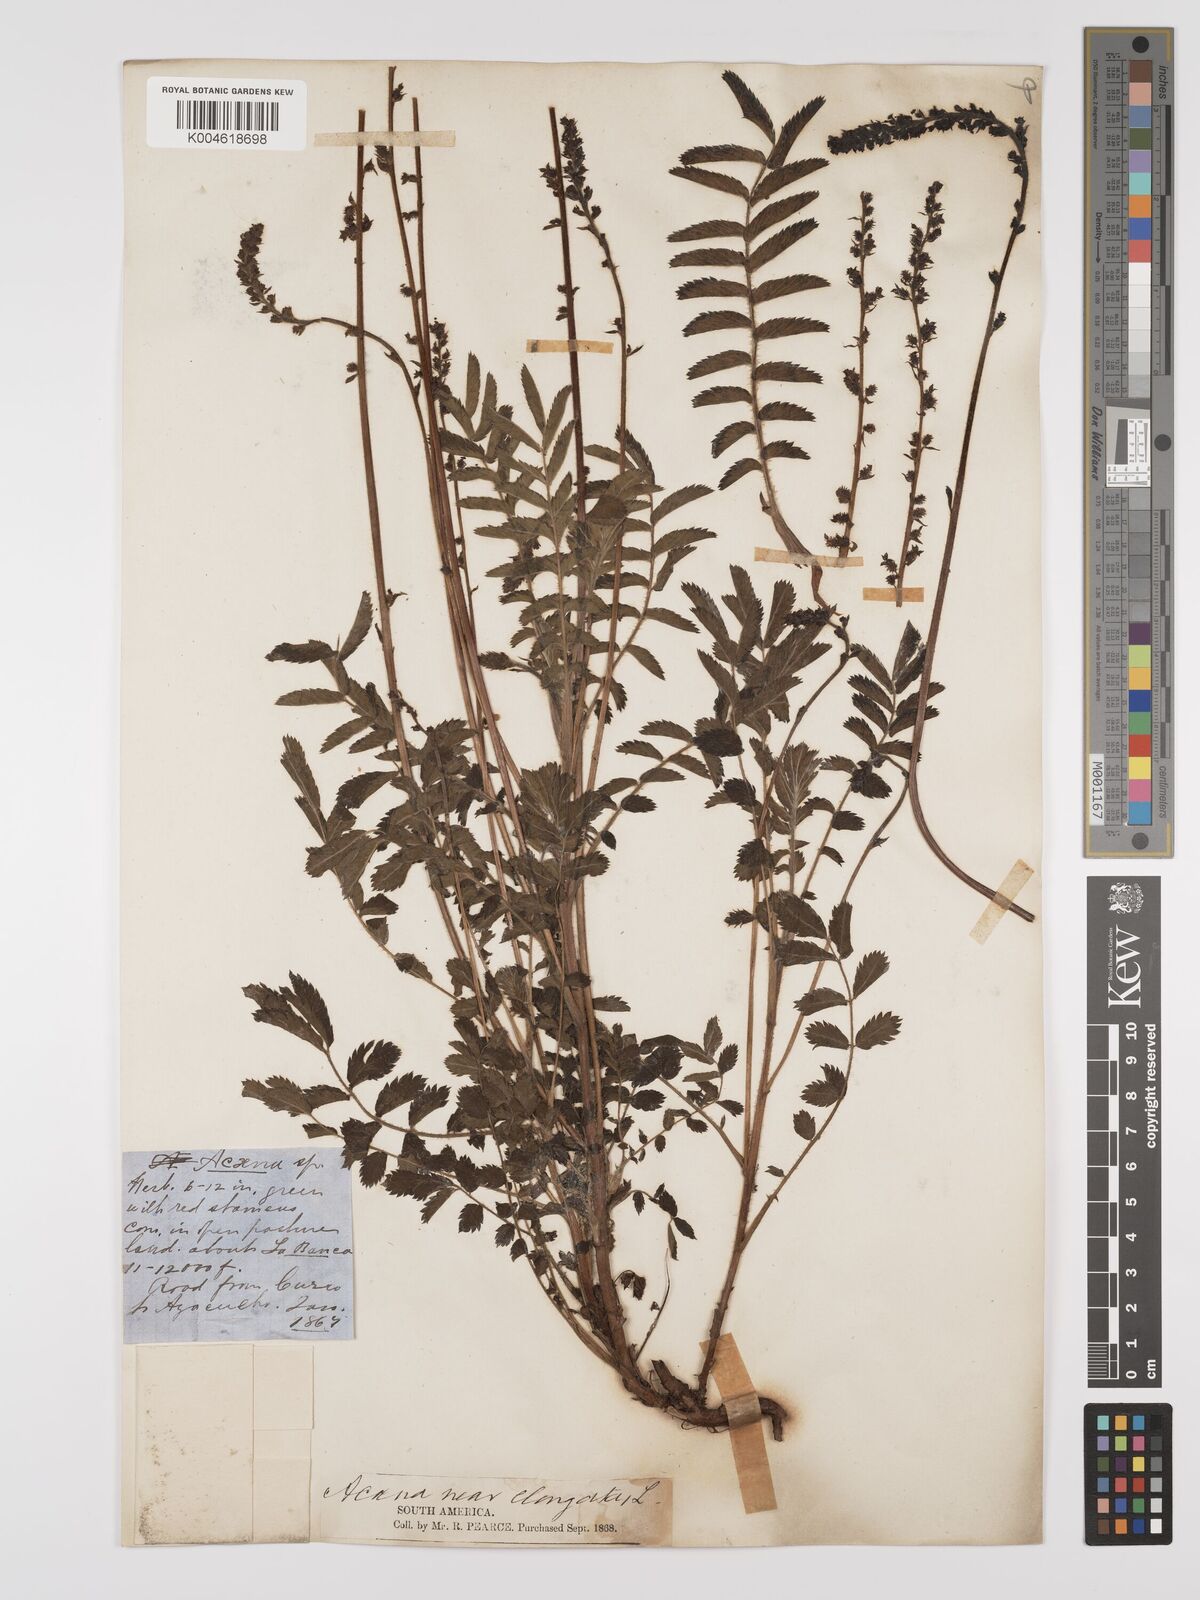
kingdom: Plantae
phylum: Tracheophyta
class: Magnoliopsida
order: Rosales
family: Rosaceae
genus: Acaena
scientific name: Acaena torilicarpa
